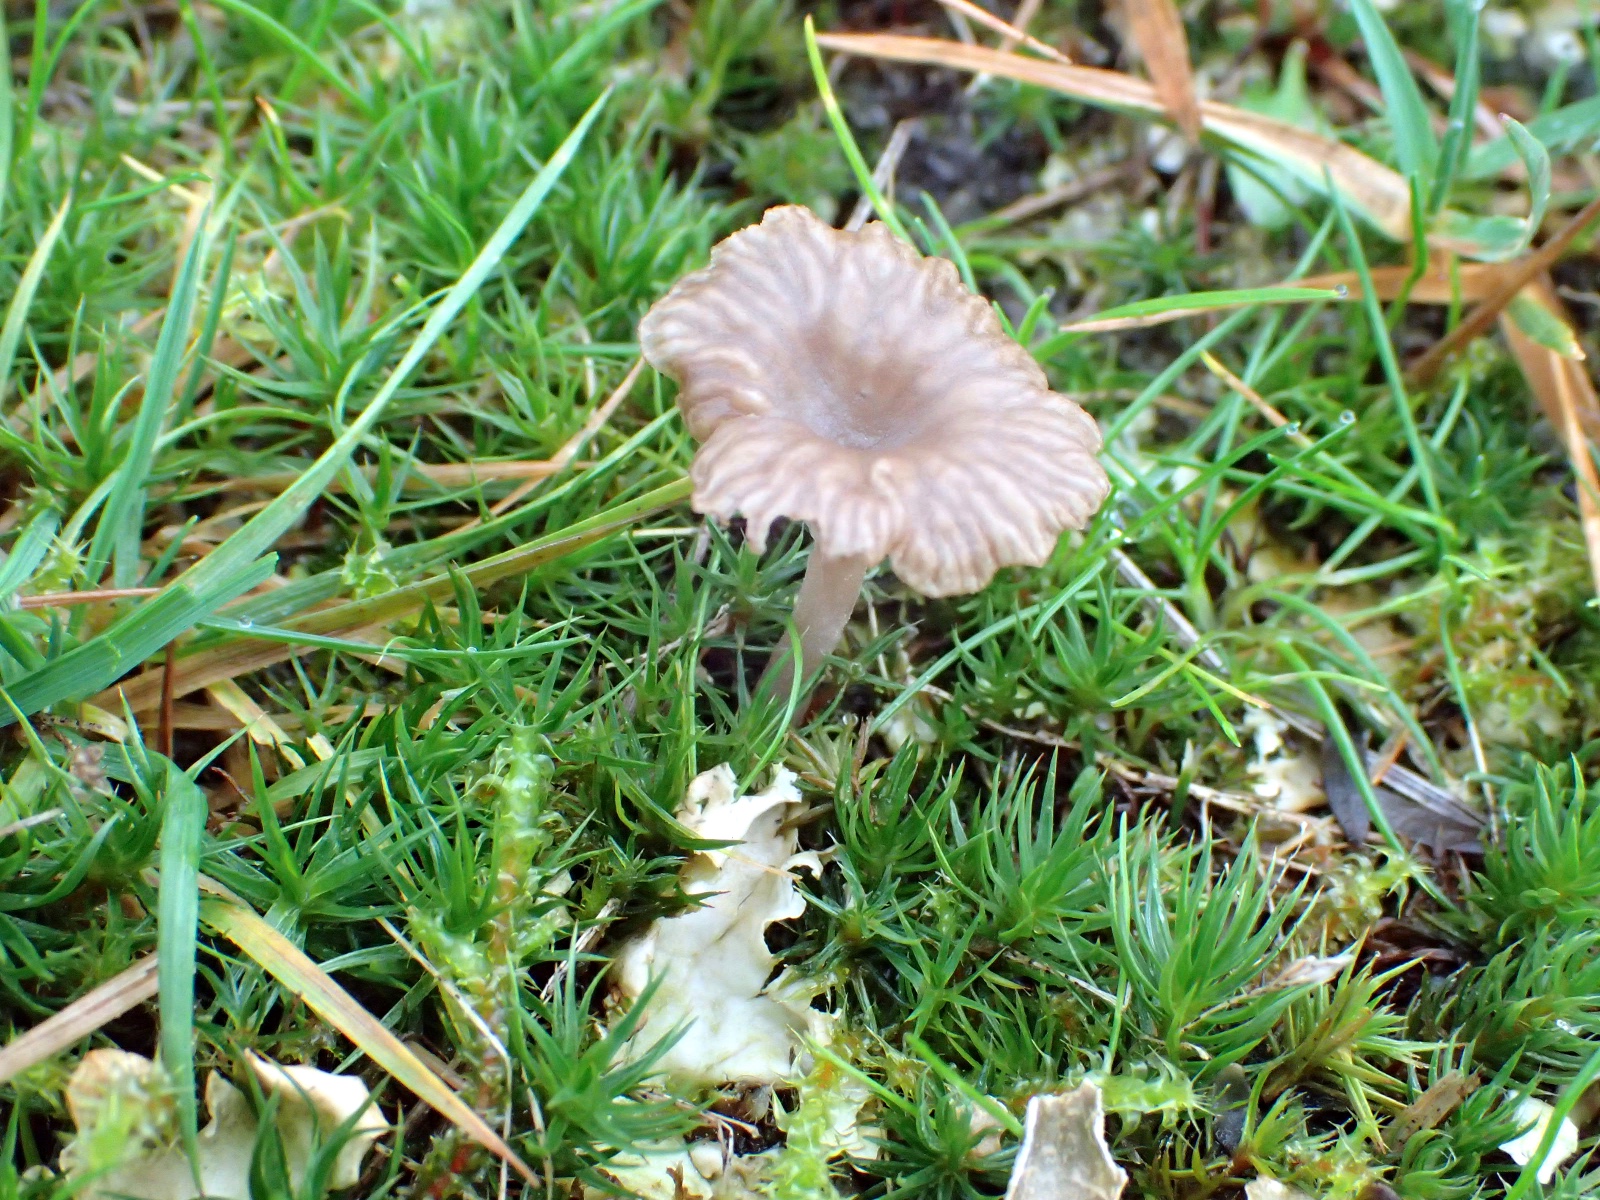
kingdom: Fungi
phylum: Basidiomycota
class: Agaricomycetes
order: Agaricales
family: Hygrophoraceae
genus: Arrhenia
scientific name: Arrhenia peltigerina
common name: skjoldlav-fontænehat
